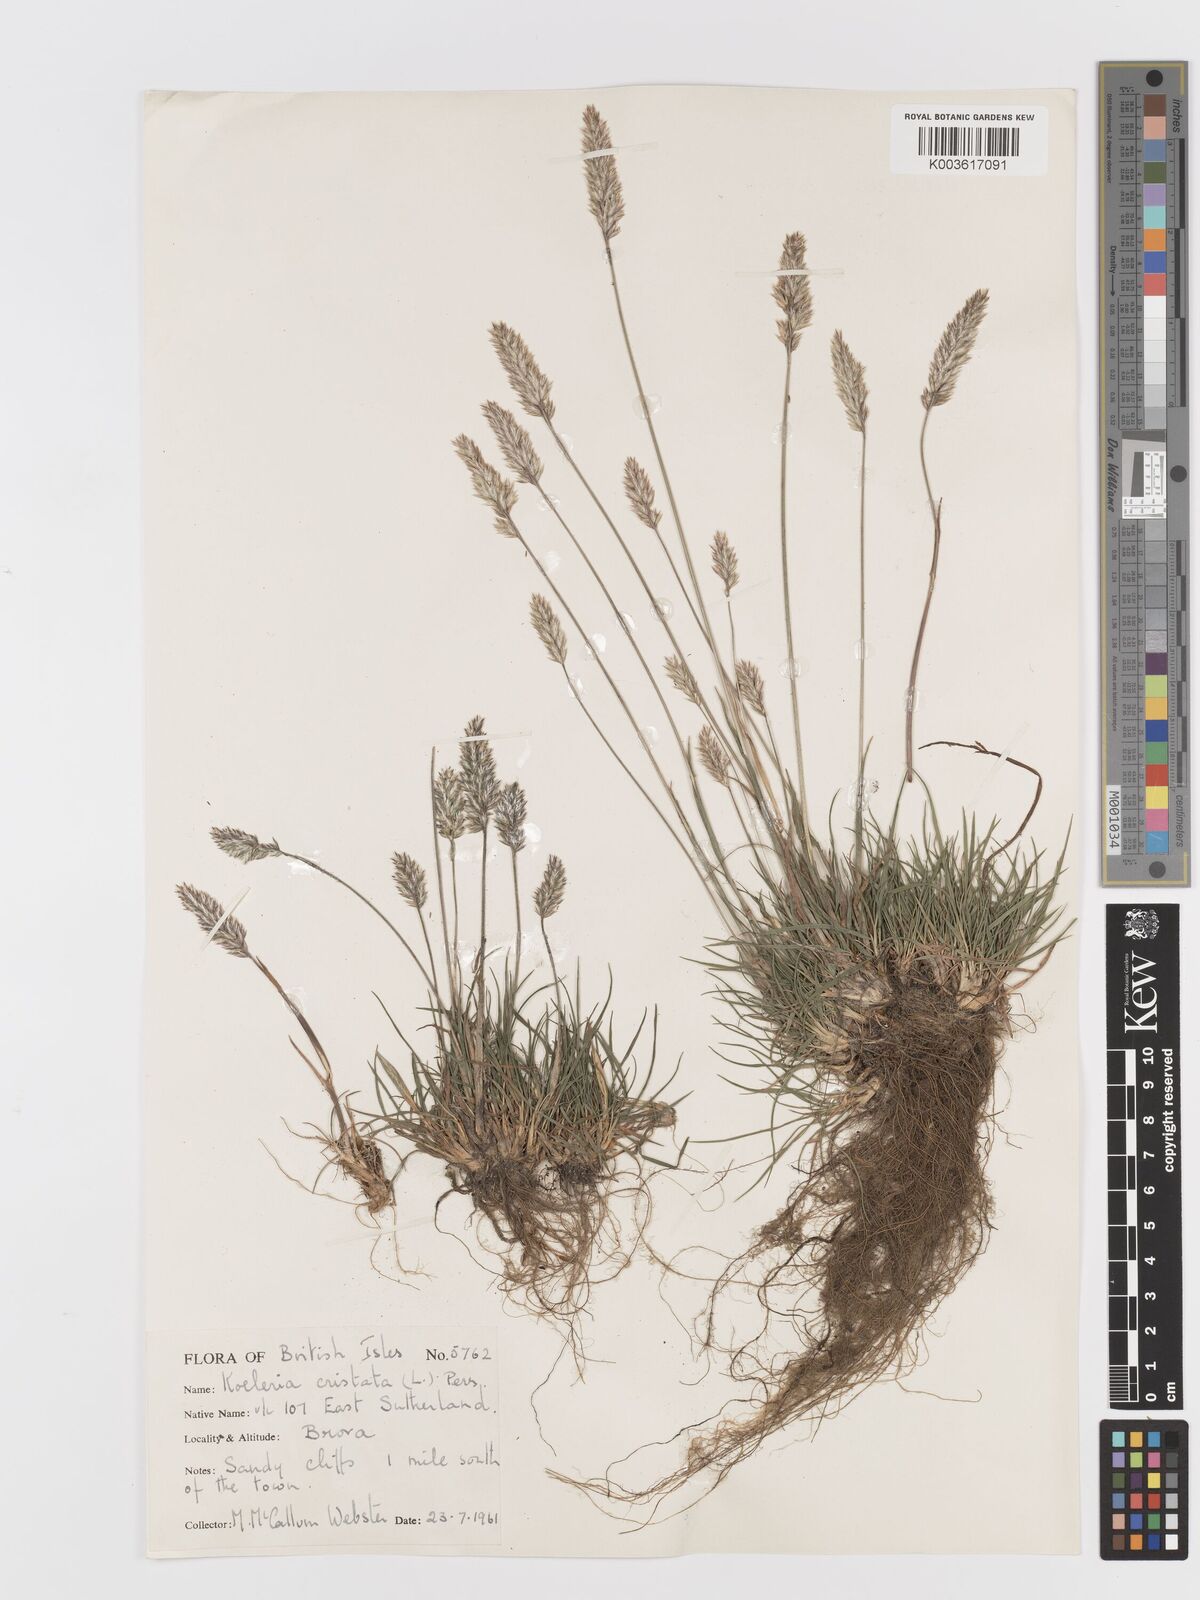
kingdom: Plantae
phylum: Tracheophyta
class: Liliopsida
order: Poales
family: Poaceae
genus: Koeleria
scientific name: Koeleria macrantha
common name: Crested hair-grass
